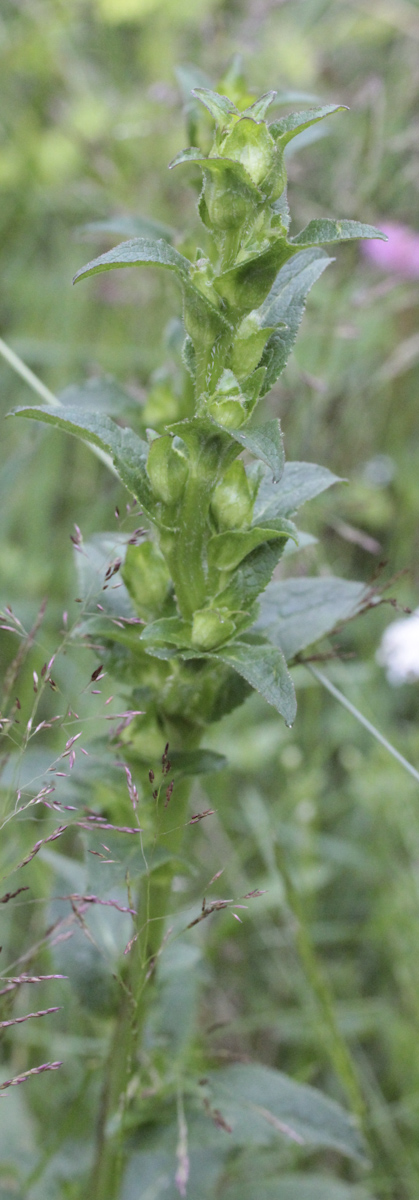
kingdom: Plantae
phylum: Tracheophyta
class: Magnoliopsida
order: Asterales
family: Campanulaceae
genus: Campanula
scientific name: Campanula glomerata
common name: Clustered bellflower
